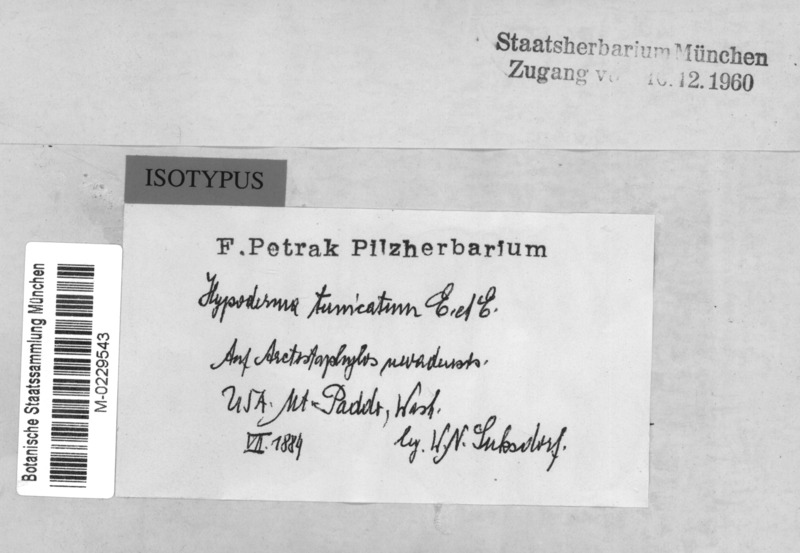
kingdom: Fungi
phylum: Ascomycota
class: Leotiomycetes
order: Rhytismatales
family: Rhytismataceae
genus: Hypoderma
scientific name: Hypoderma tunicatum
